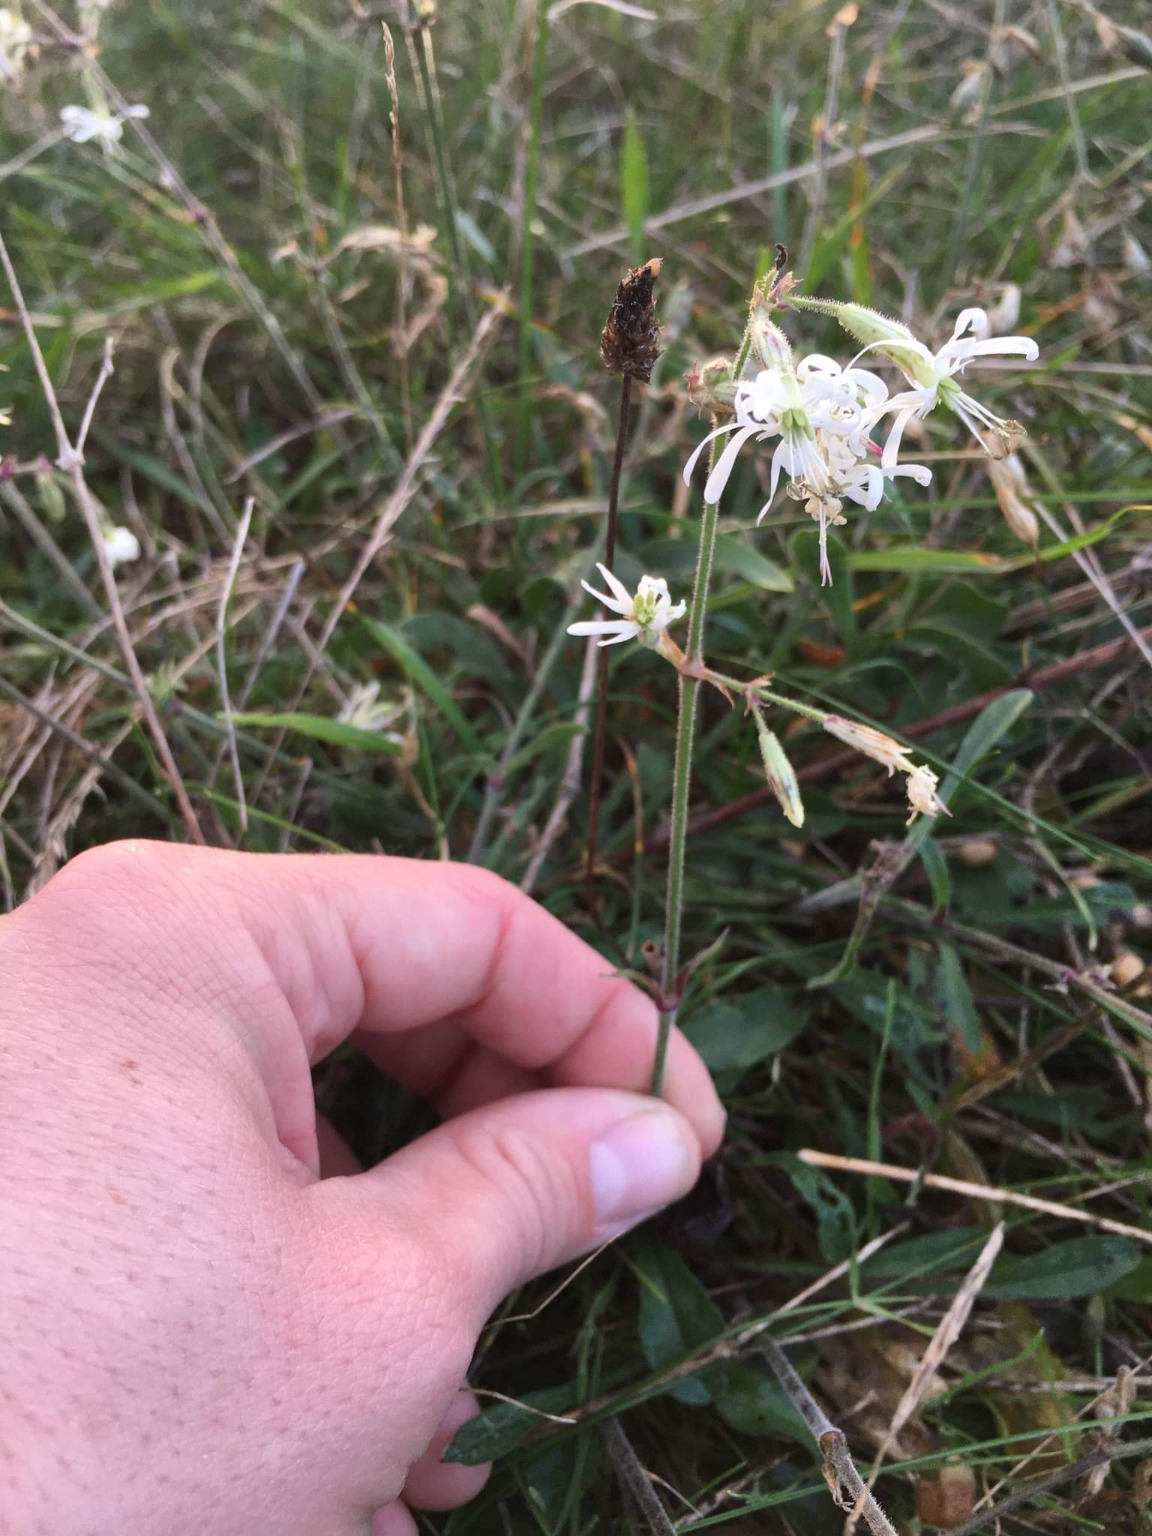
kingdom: Plantae
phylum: Tracheophyta
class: Magnoliopsida
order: Caryophyllales
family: Caryophyllaceae
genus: Silene
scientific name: Silene nutans
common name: Nikkende limurt
